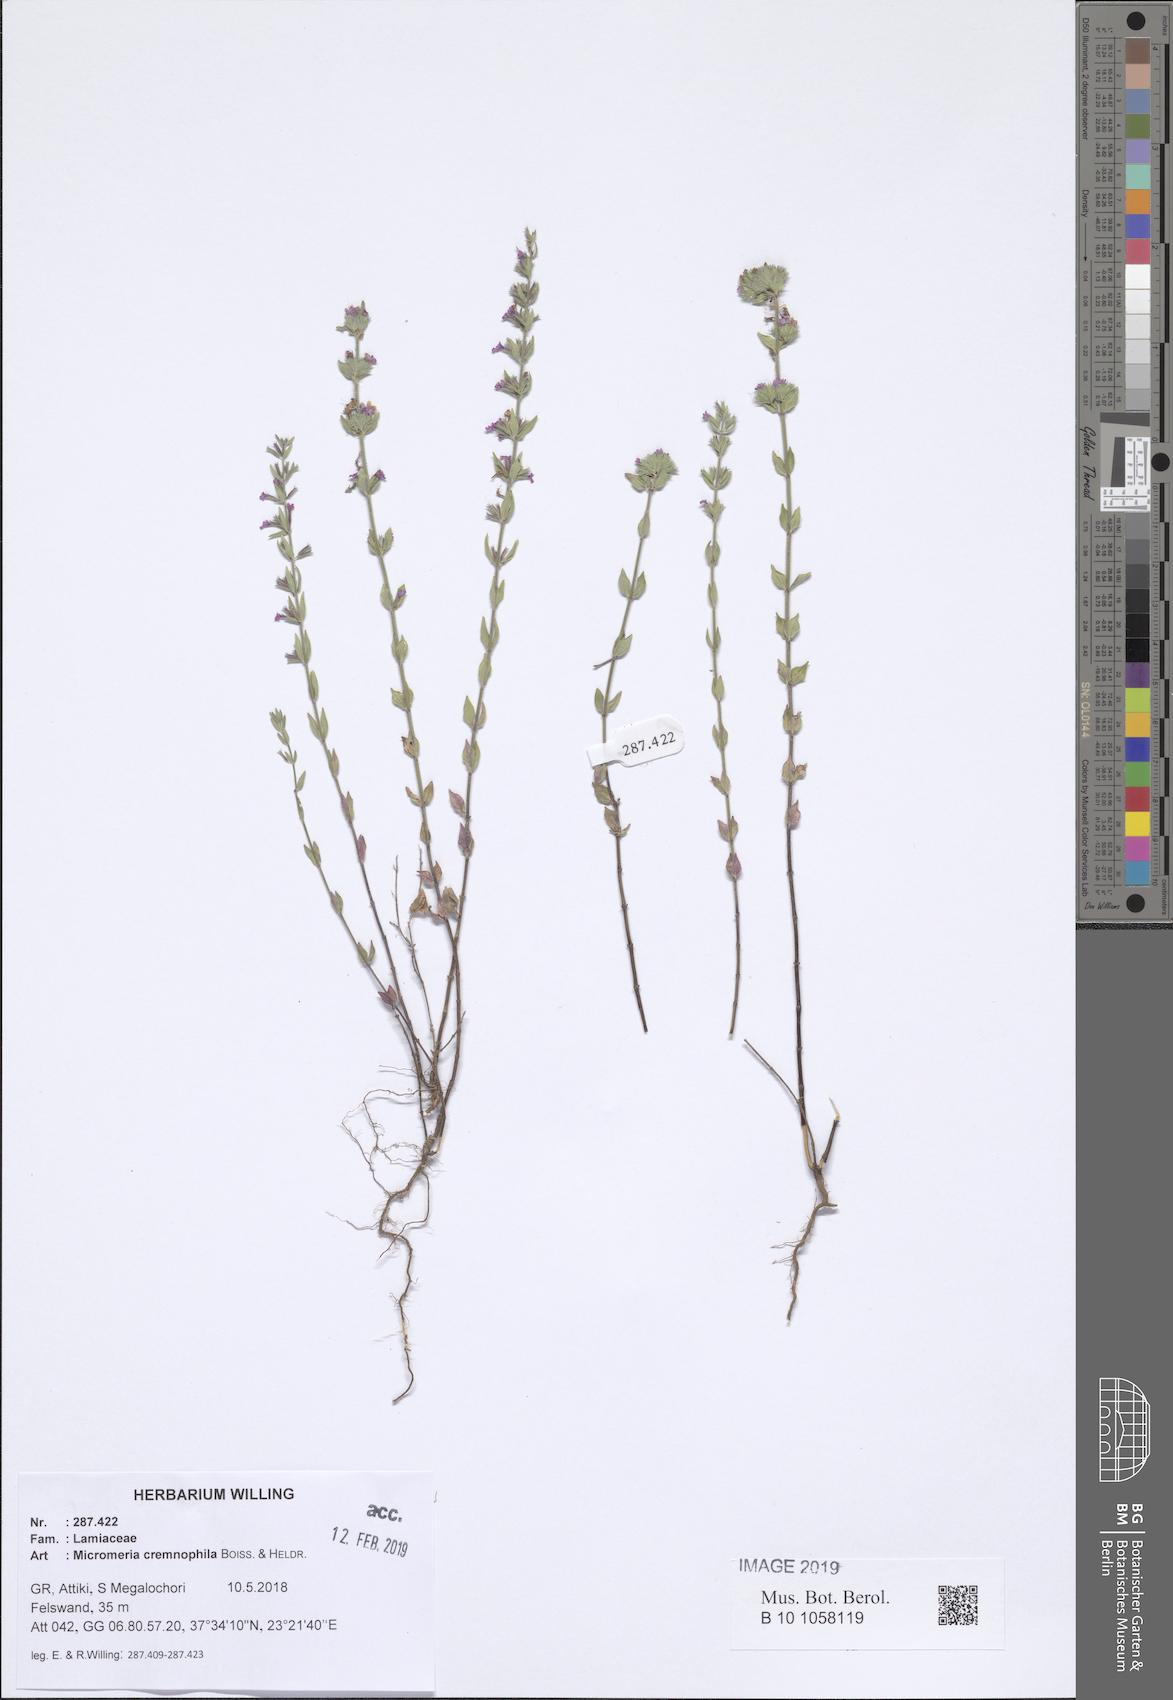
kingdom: Plantae
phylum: Tracheophyta
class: Magnoliopsida
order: Lamiales
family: Lamiaceae
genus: Micromeria
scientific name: Micromeria graeca
